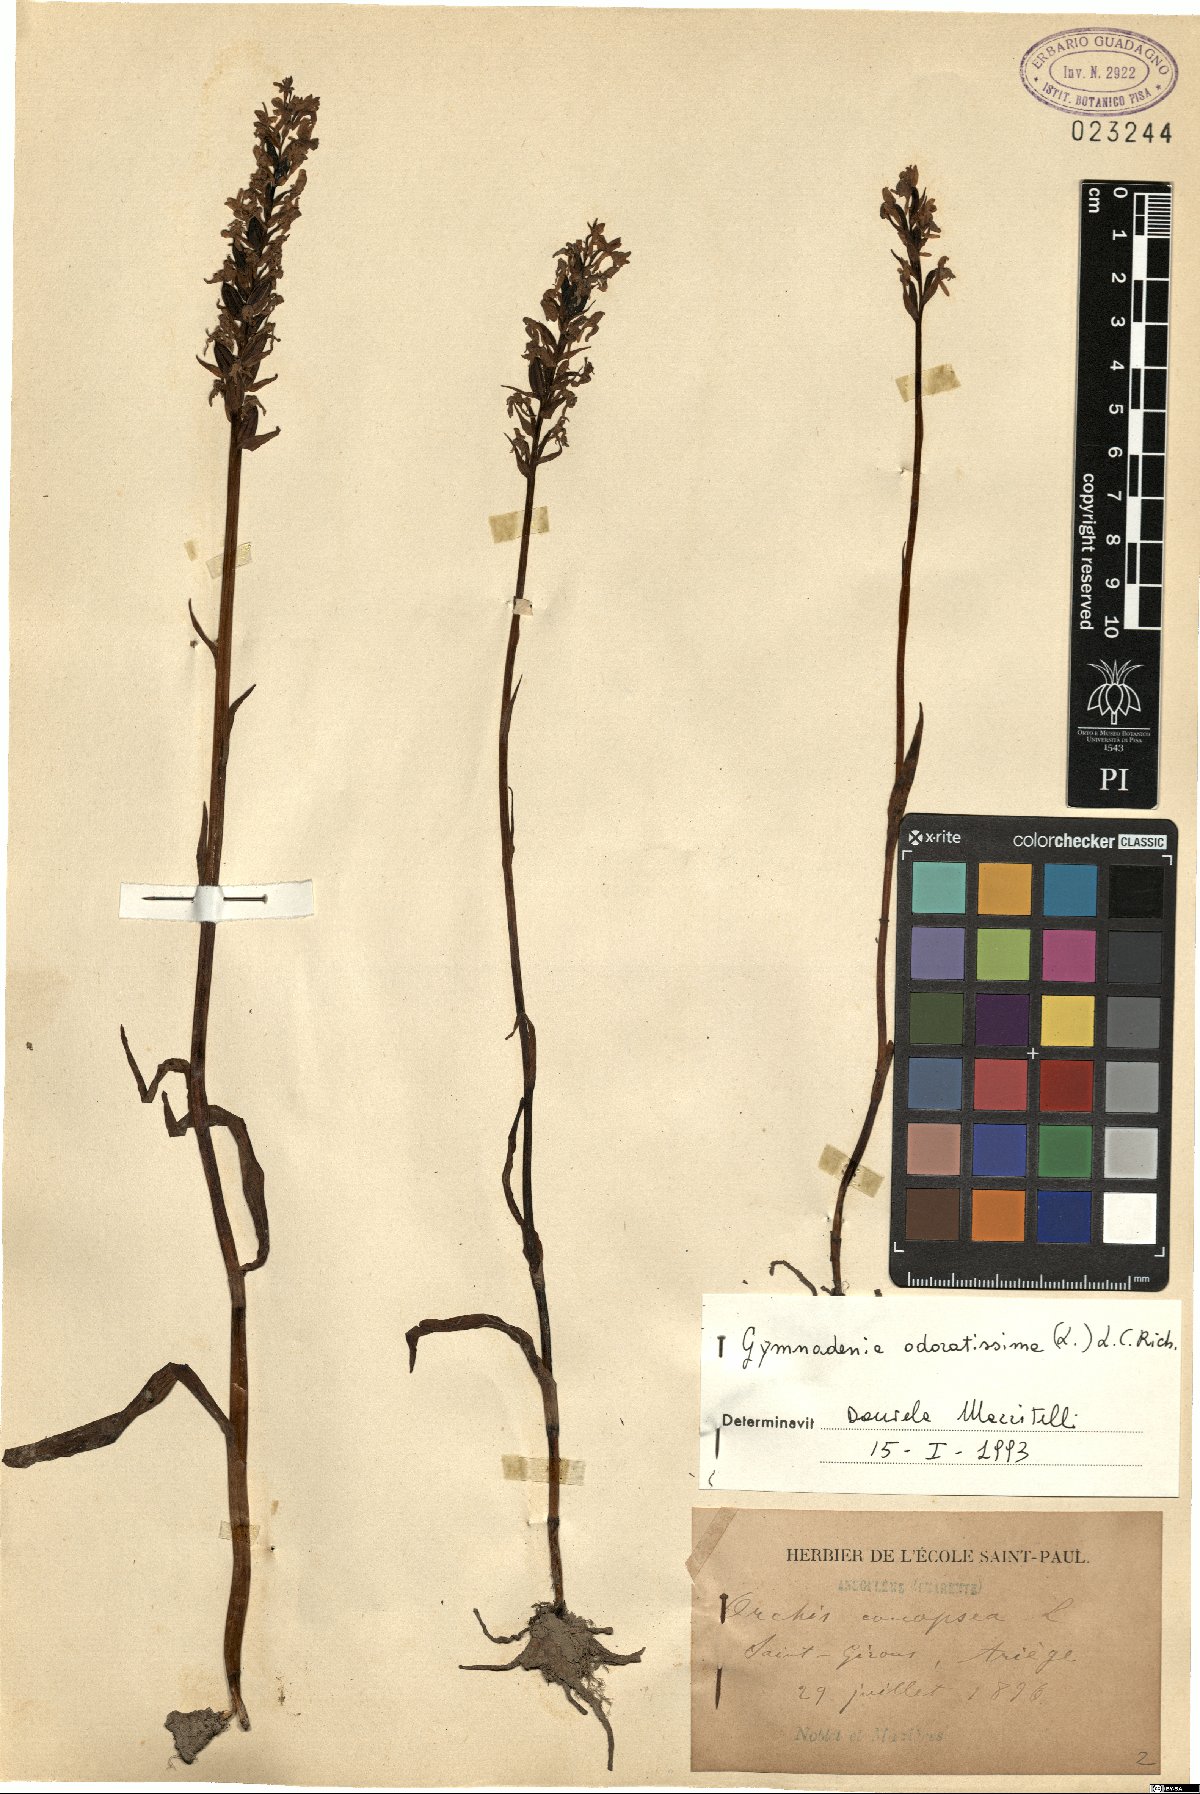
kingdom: Plantae
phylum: Tracheophyta
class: Liliopsida
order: Asparagales
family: Orchidaceae
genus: Gymnadenia
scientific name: Gymnadenia odoratissima
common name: Scented gymnadenia
